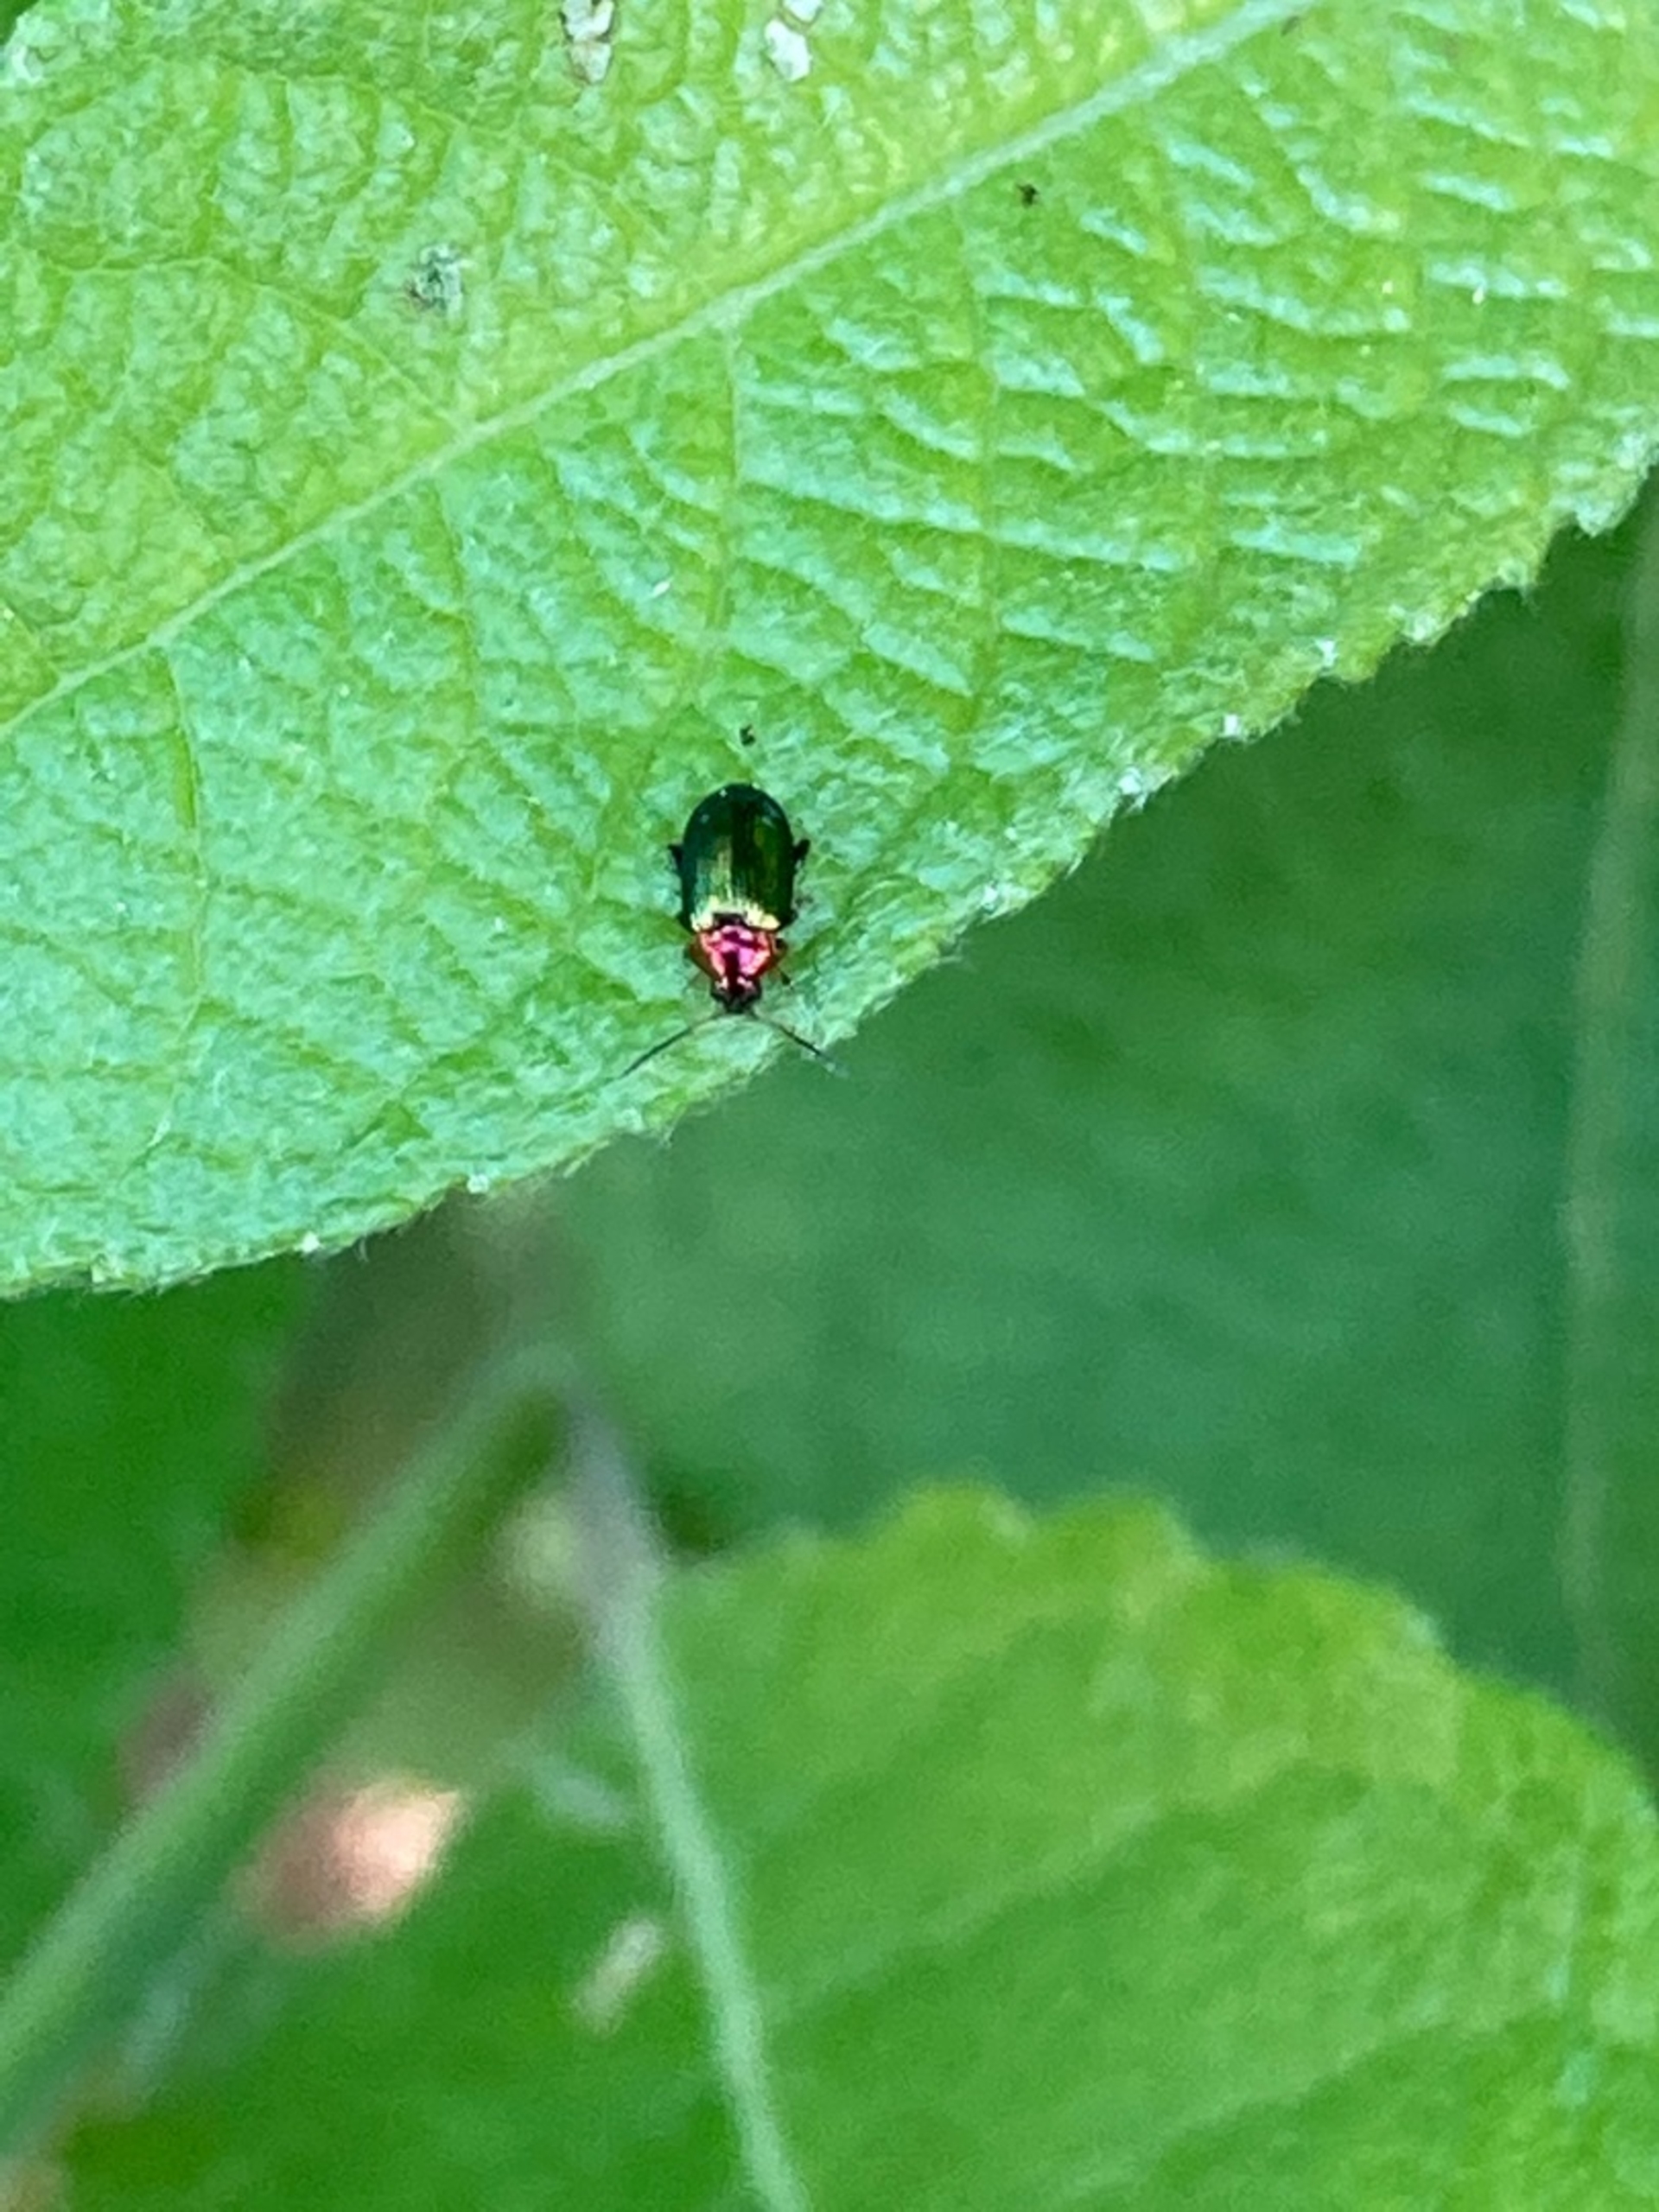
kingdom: Animalia
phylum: Arthropoda
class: Insecta
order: Coleoptera
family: Chrysomelidae
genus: Crepidodera
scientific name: Crepidodera aurata
